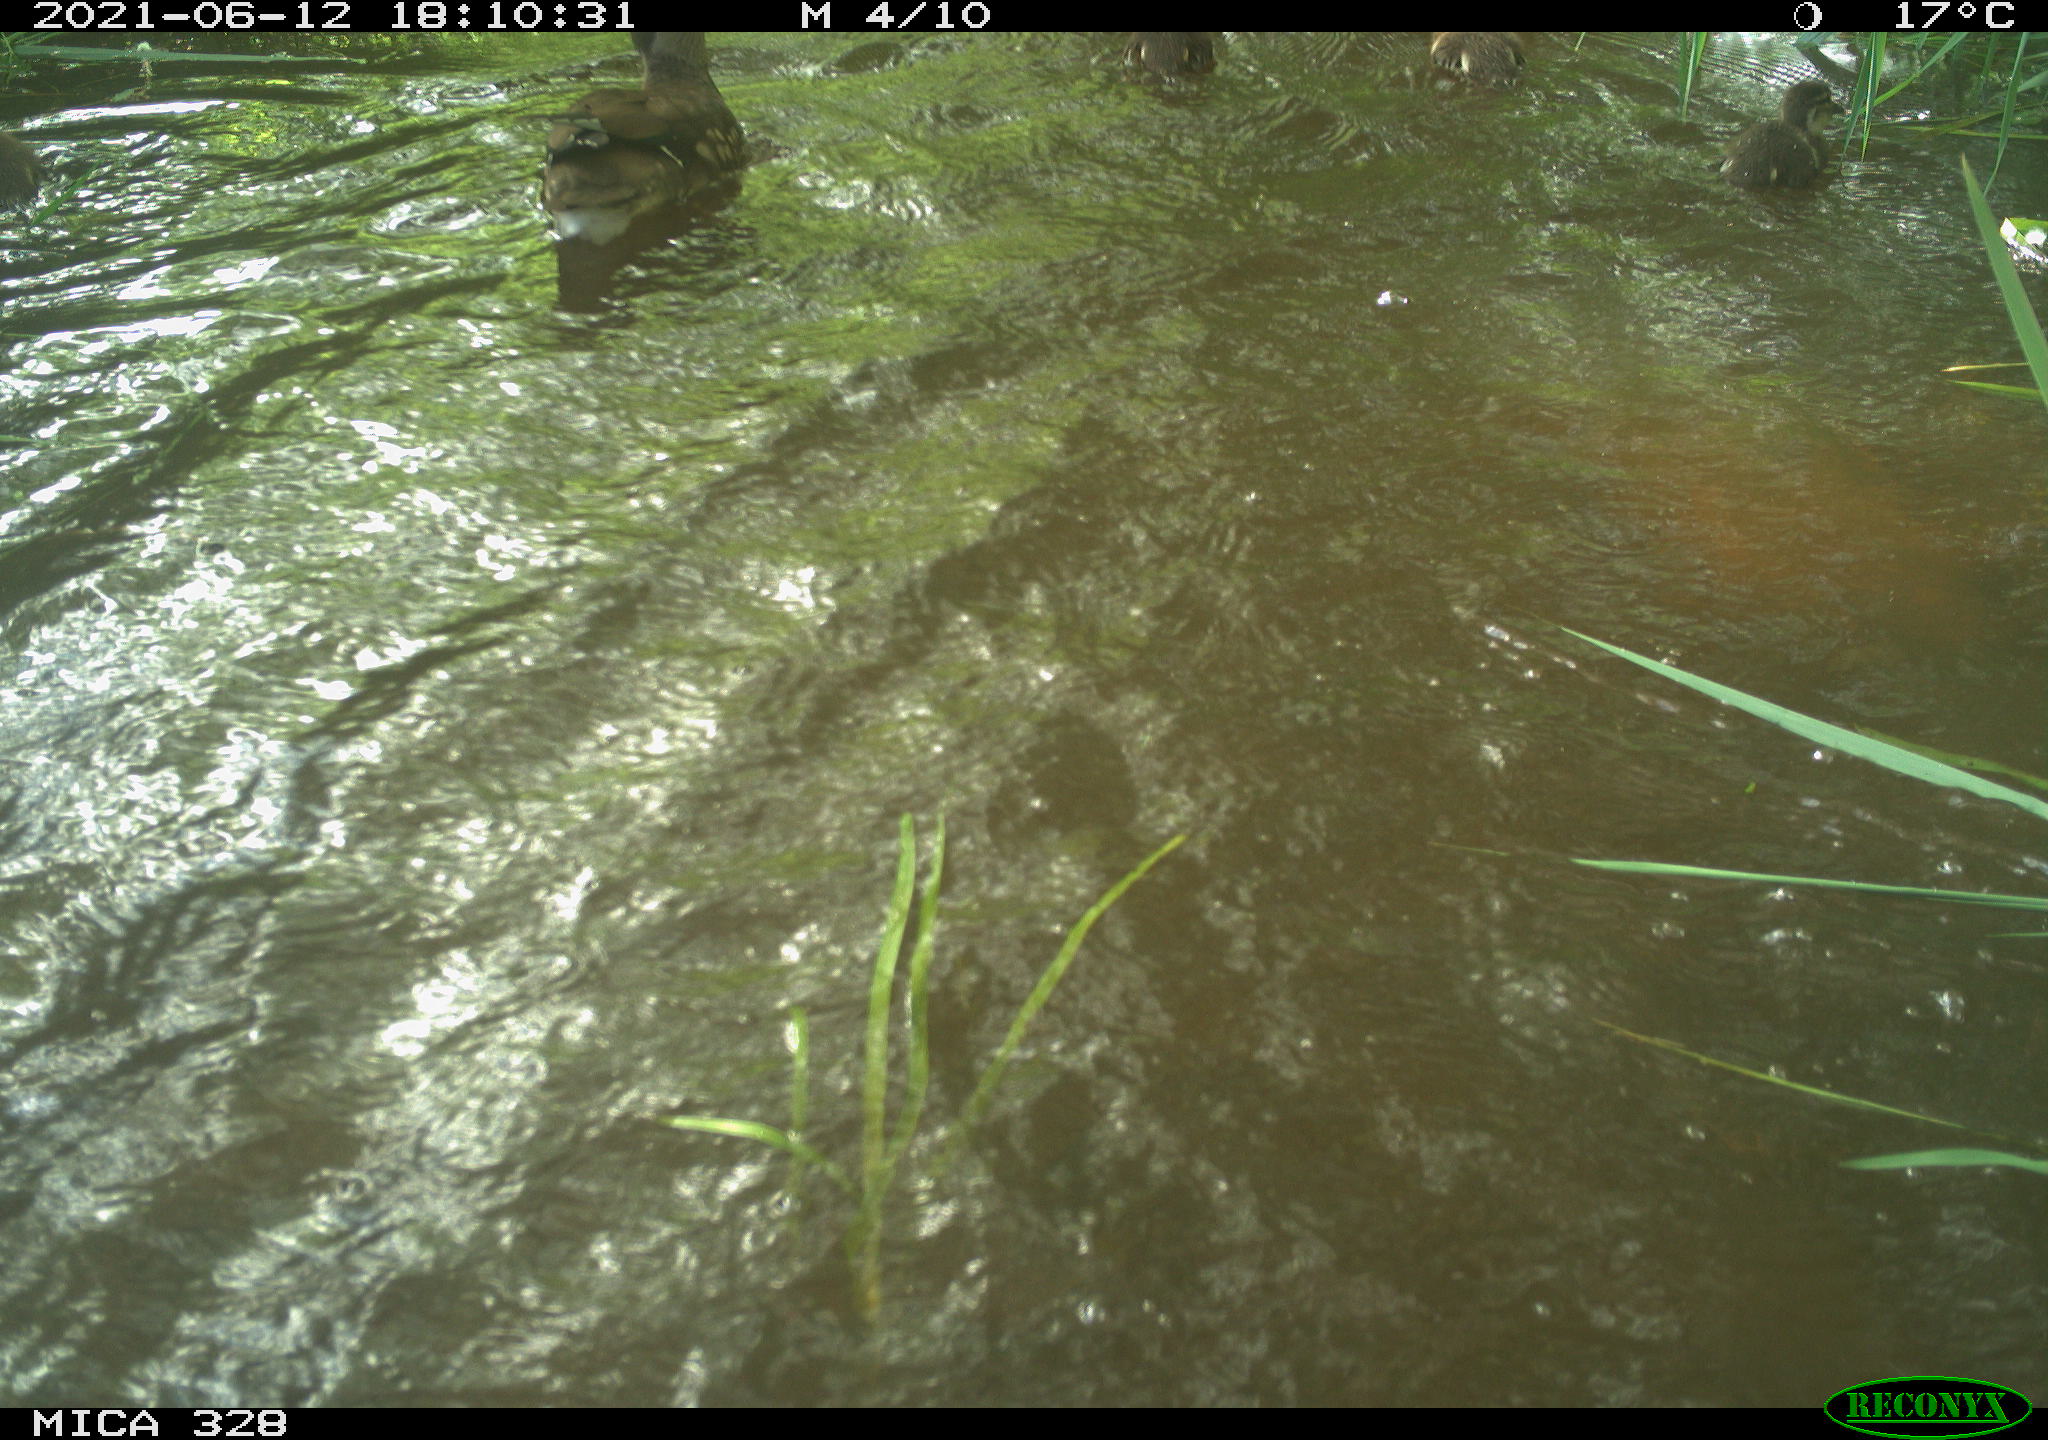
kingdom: Animalia
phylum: Chordata
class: Aves
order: Anseriformes
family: Anatidae
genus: Aix
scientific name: Aix galericulata
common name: Mandarin duck
